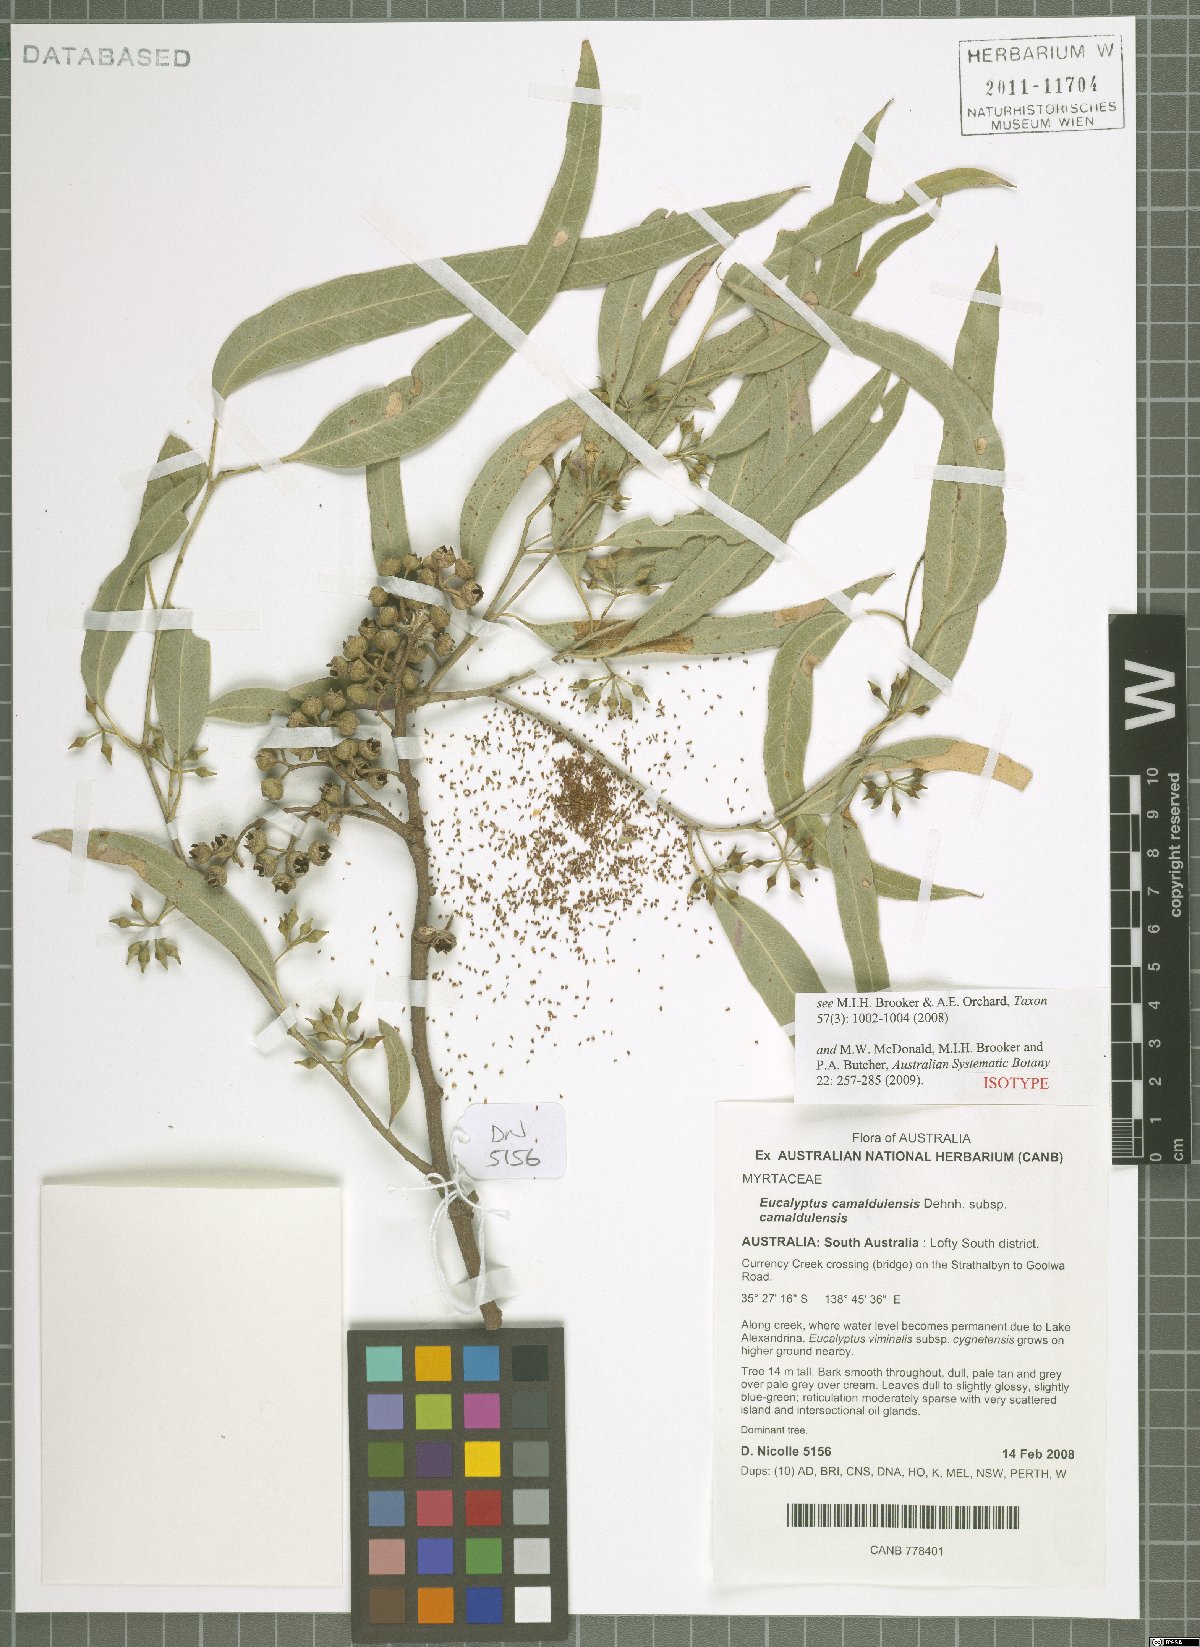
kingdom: Plantae
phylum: Tracheophyta
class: Magnoliopsida
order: Myrtales
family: Myrtaceae
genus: Eucalyptus
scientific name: Eucalyptus camaldulensis
